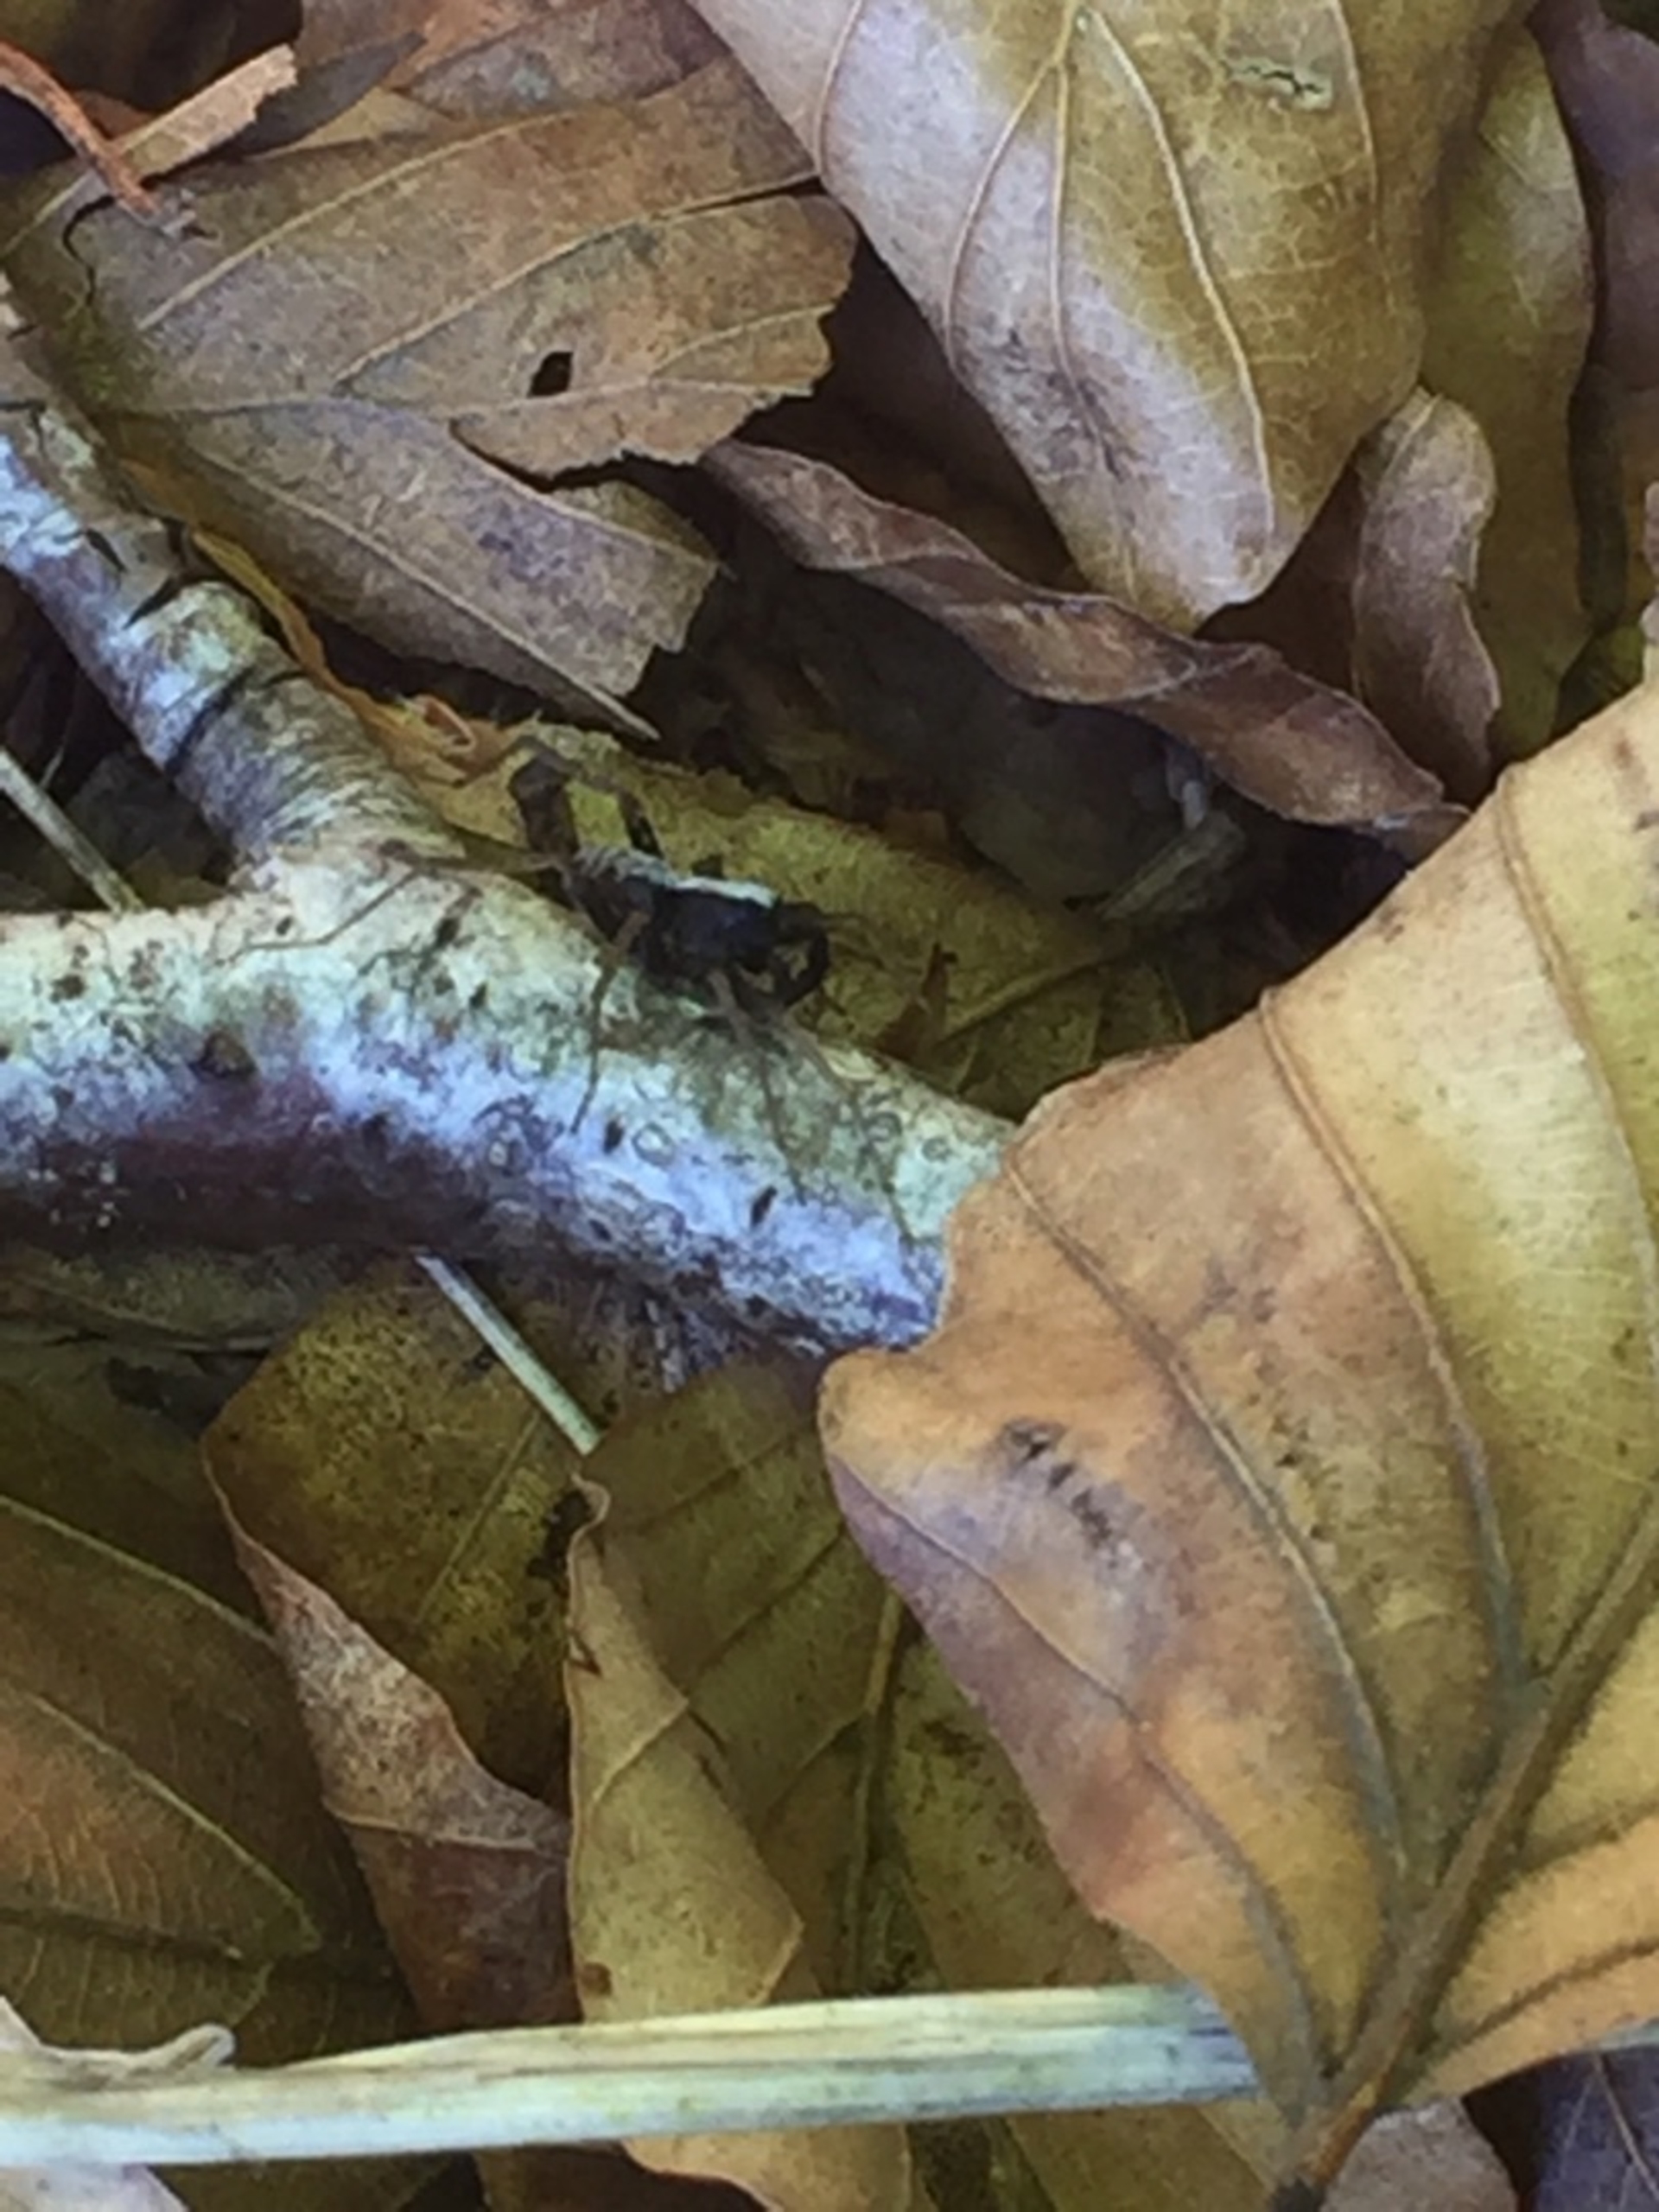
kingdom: Animalia
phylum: Arthropoda
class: Arachnida
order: Araneae
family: Lycosidae
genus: Pardosa
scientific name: Pardosa
